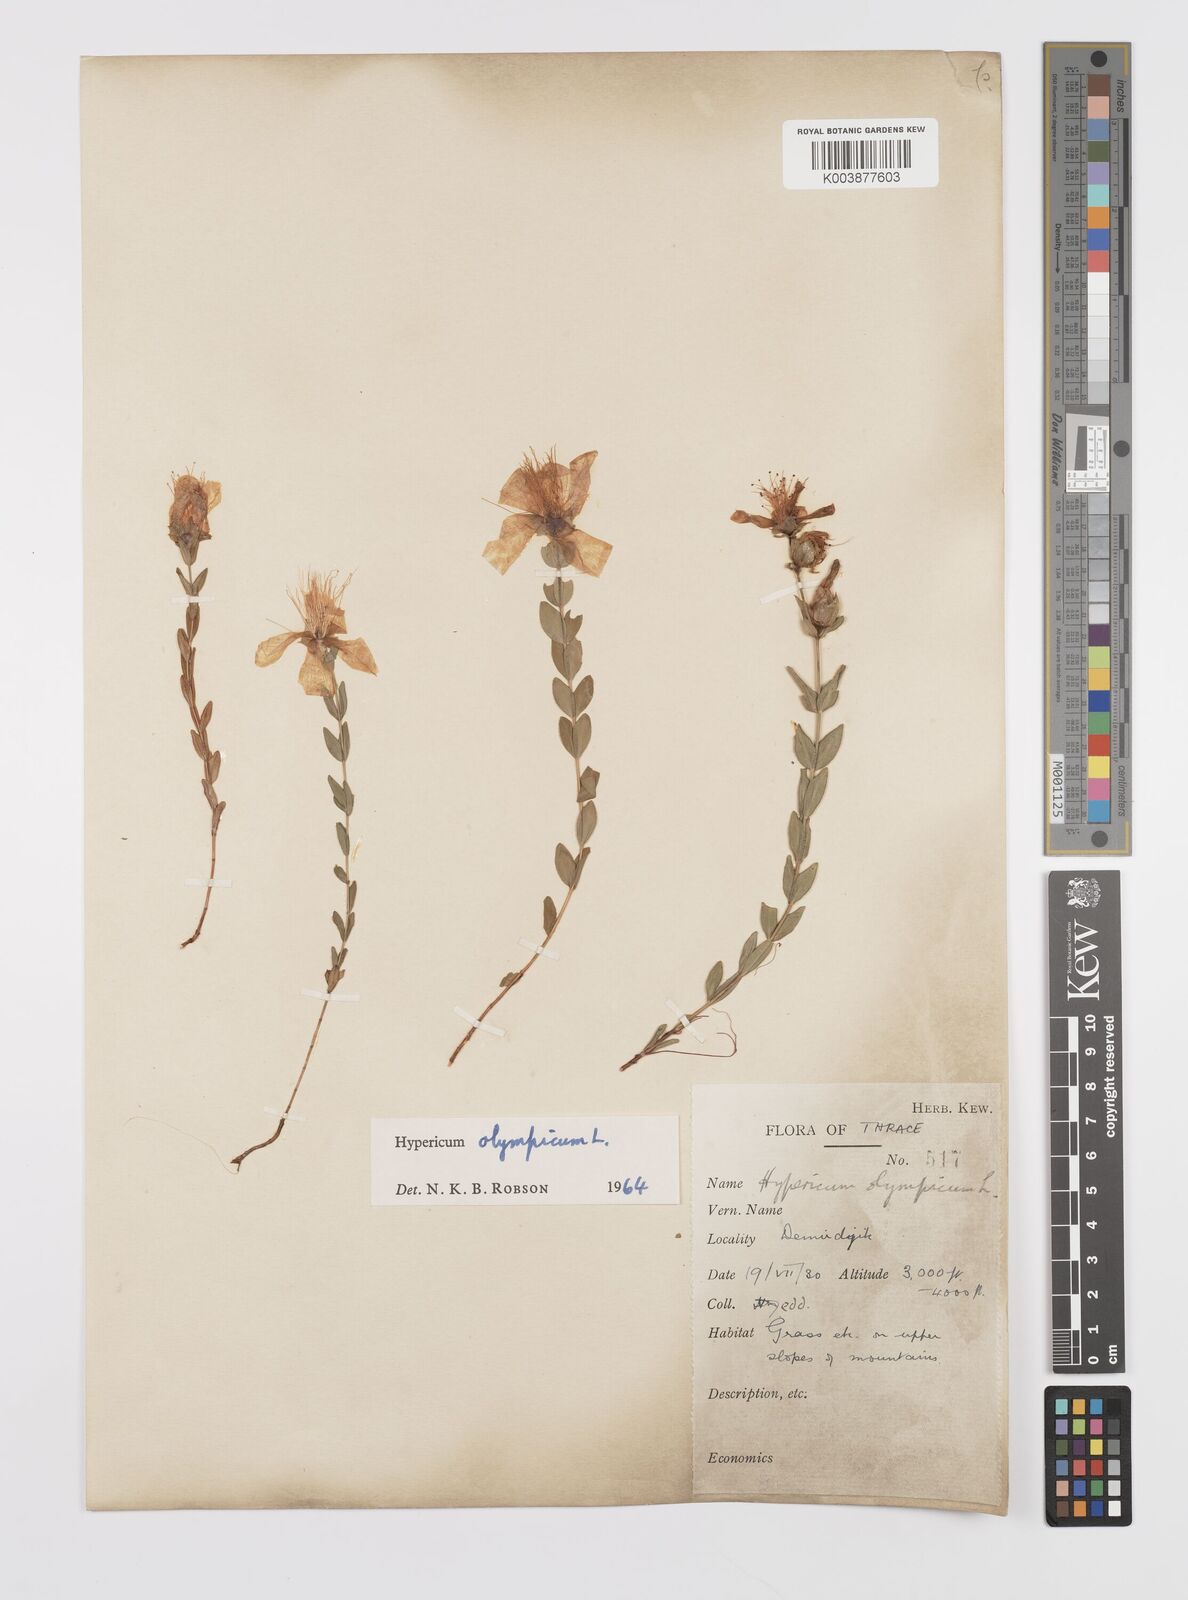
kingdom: Plantae
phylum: Tracheophyta
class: Magnoliopsida
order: Malpighiales
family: Hypericaceae
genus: Hypericum
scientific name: Hypericum olympicum
